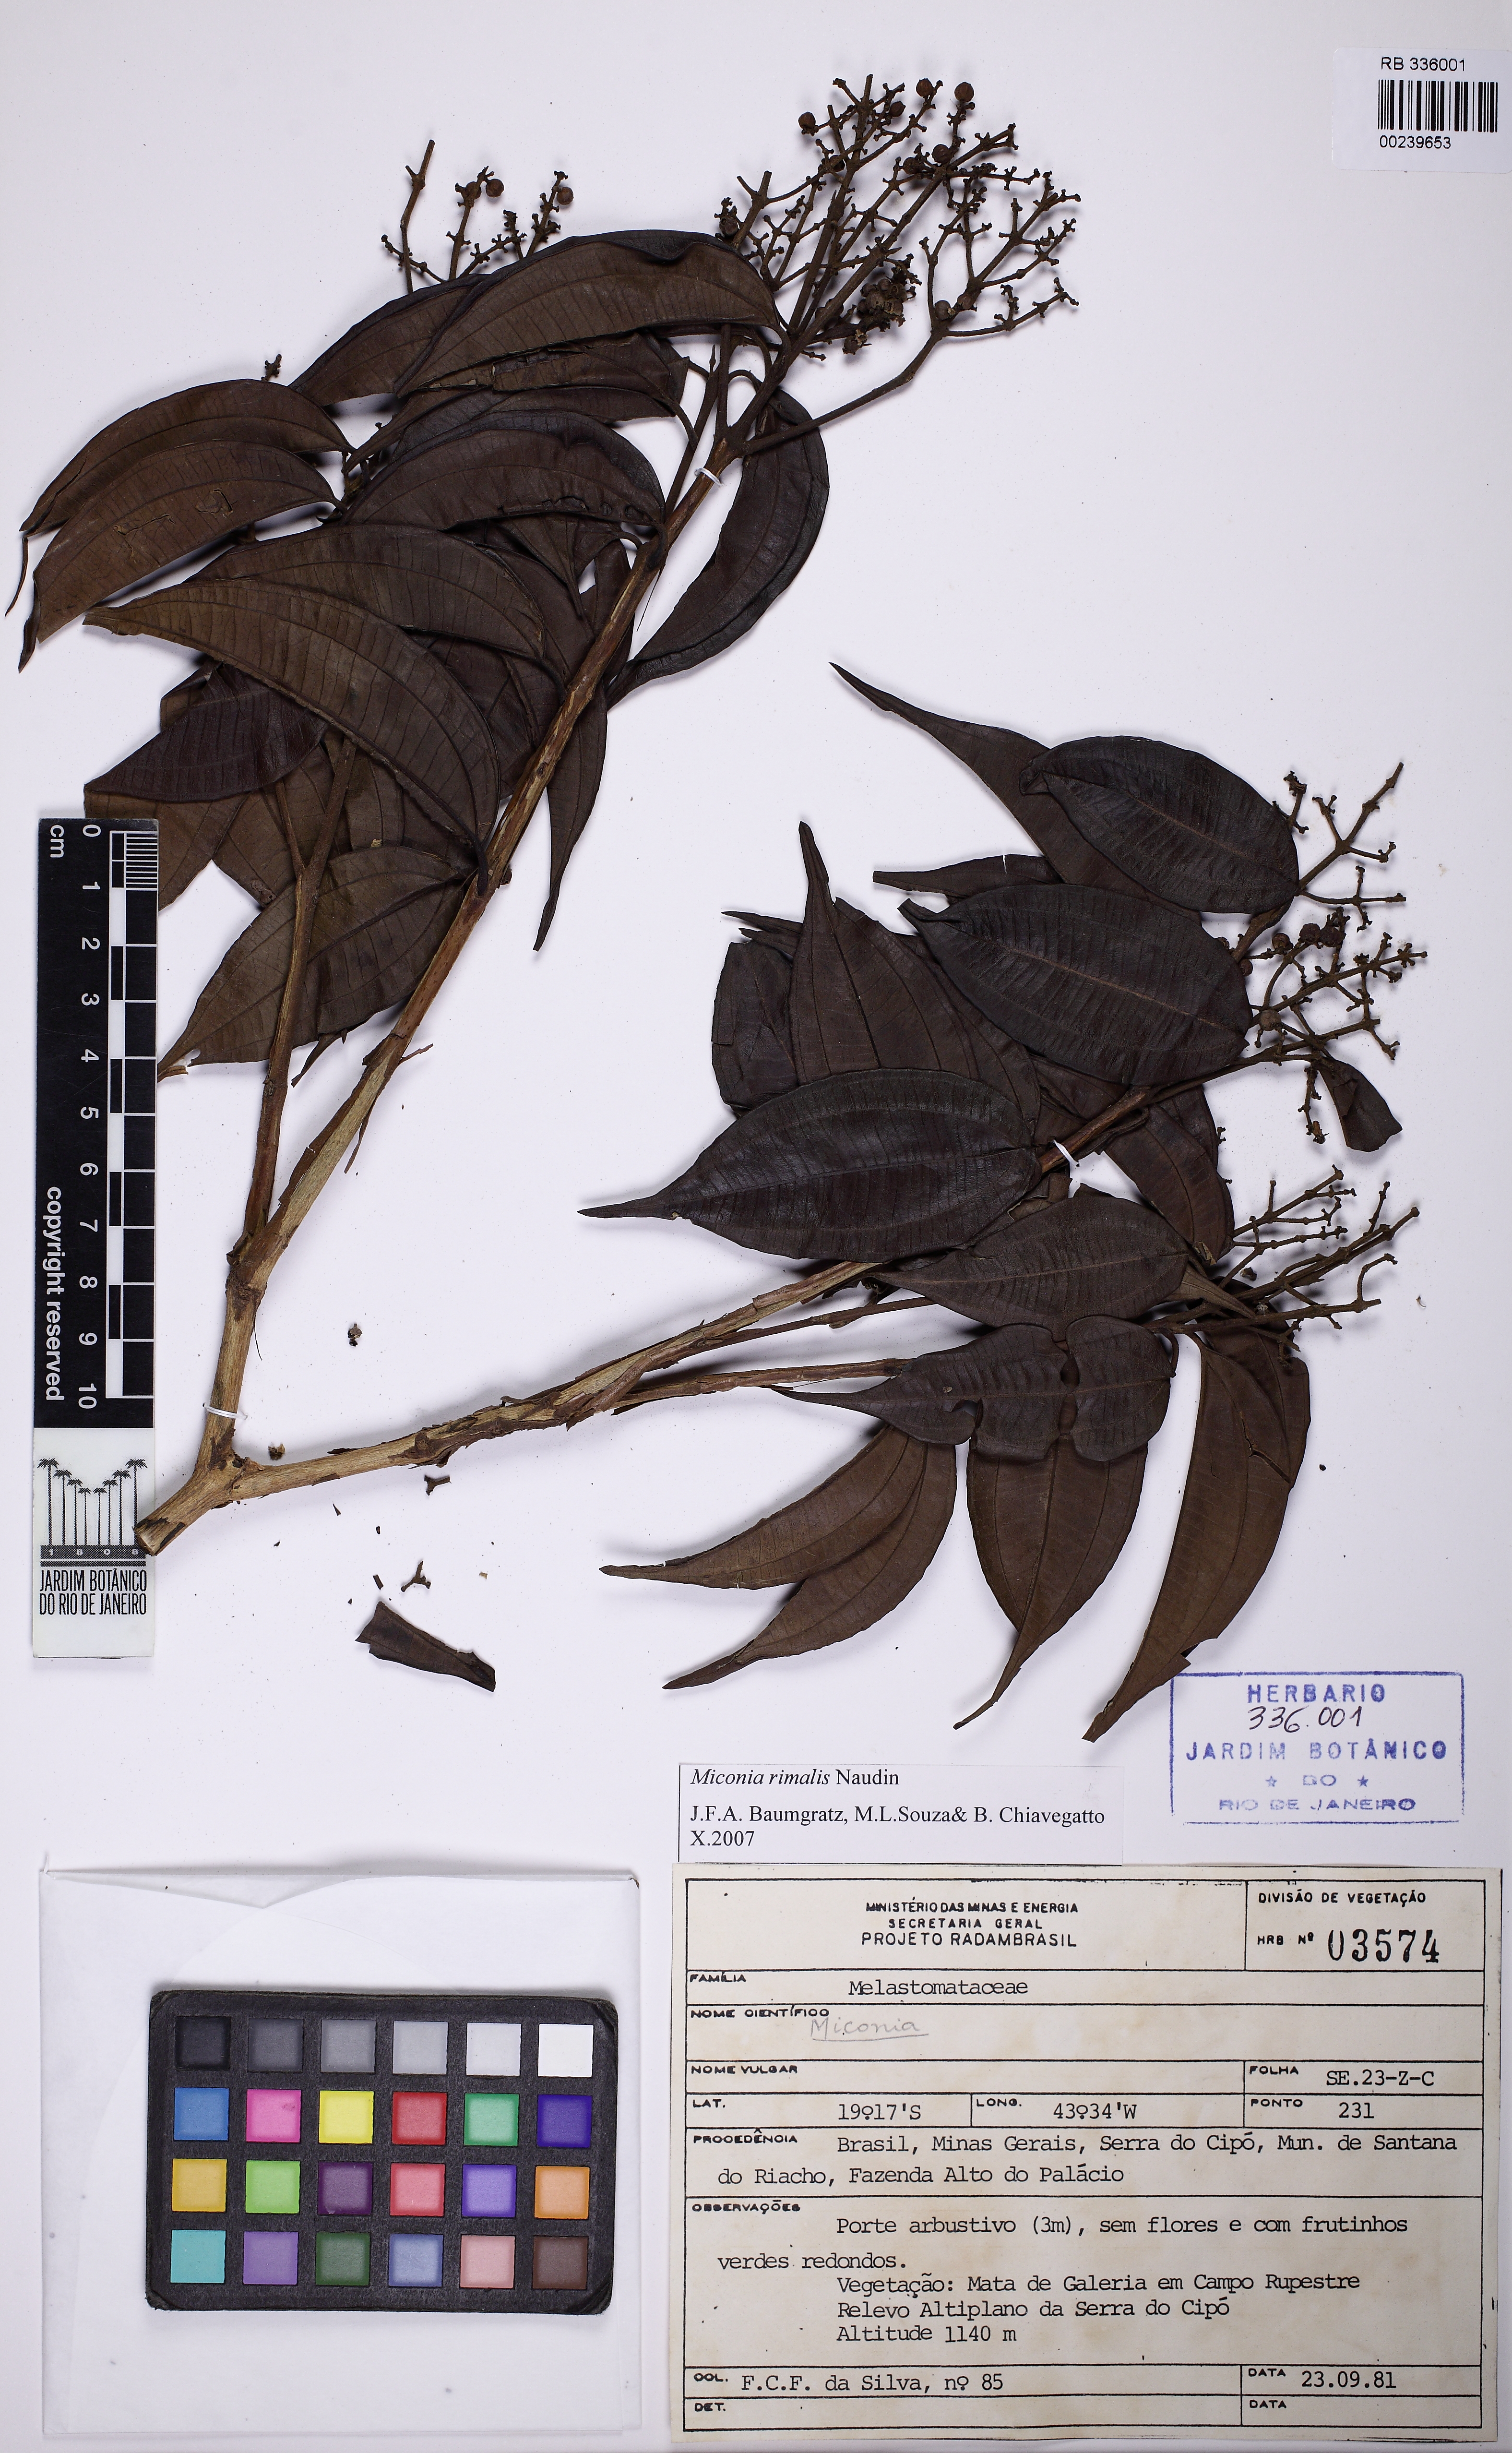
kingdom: Plantae
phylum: Tracheophyta
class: Magnoliopsida
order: Myrtales
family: Melastomataceae
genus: Miconia
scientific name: Miconia rimalis
